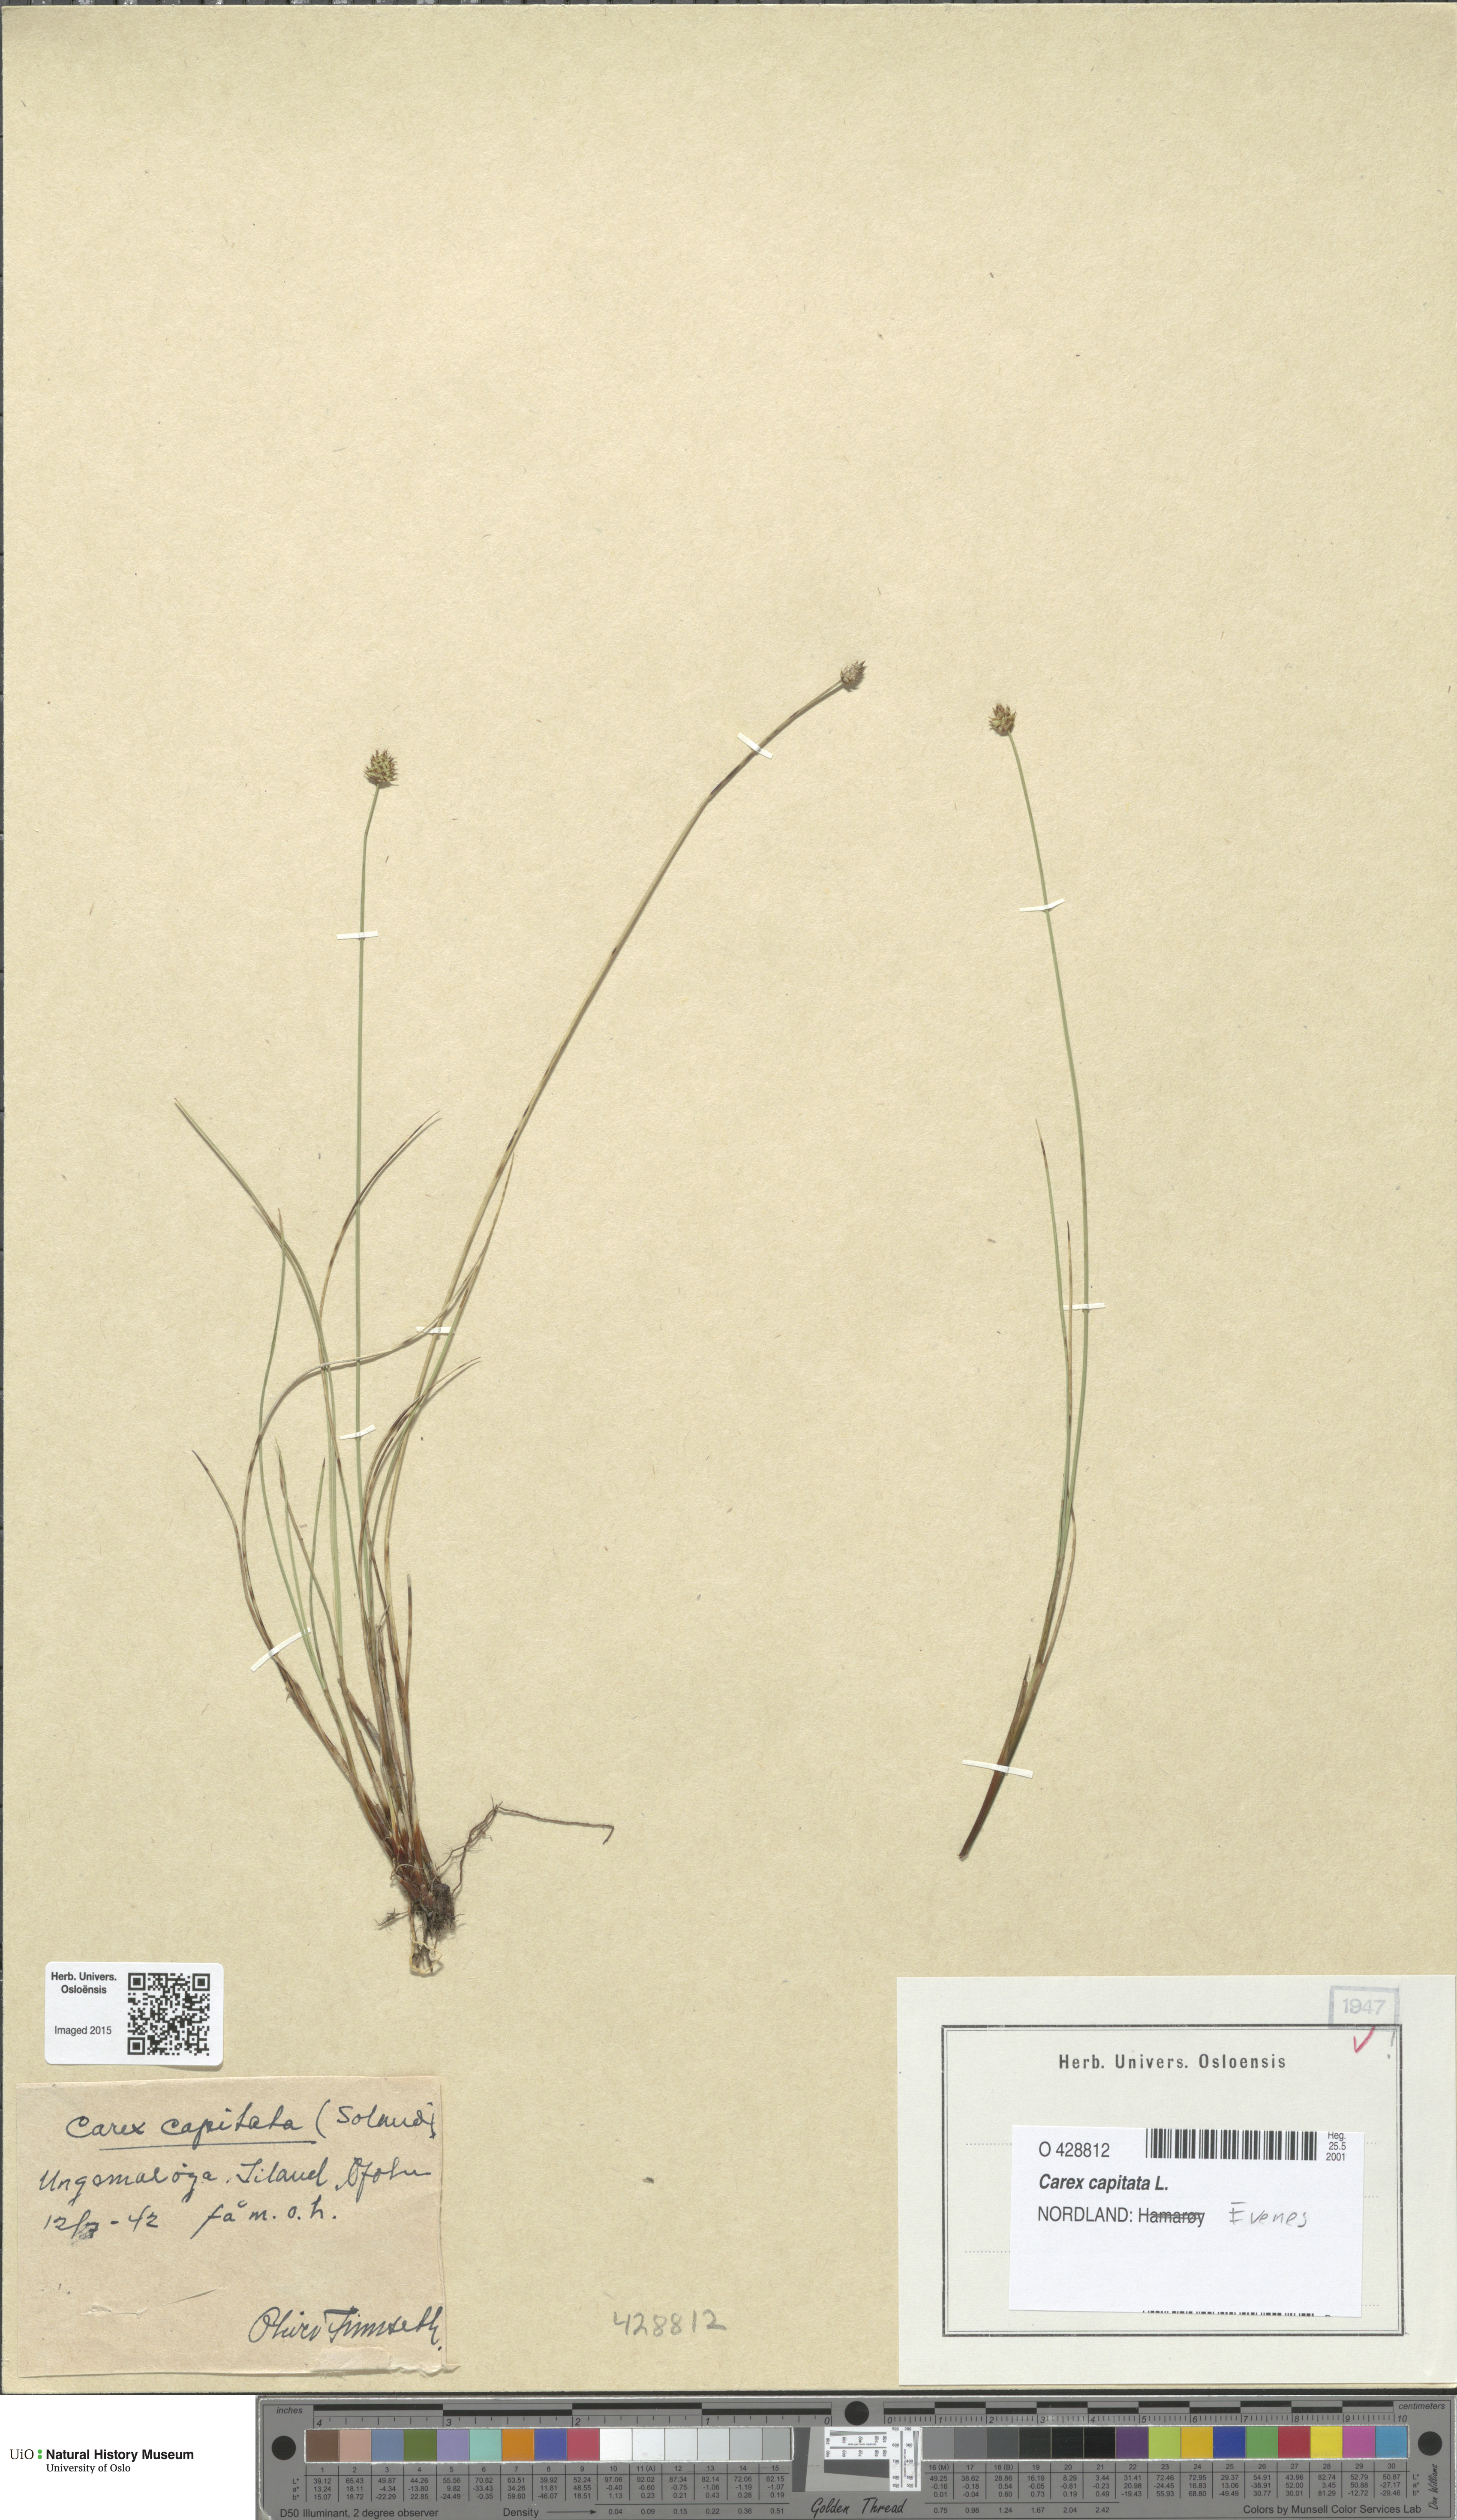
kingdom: Plantae
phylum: Tracheophyta
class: Liliopsida
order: Poales
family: Cyperaceae
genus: Carex
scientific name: Carex capitata
